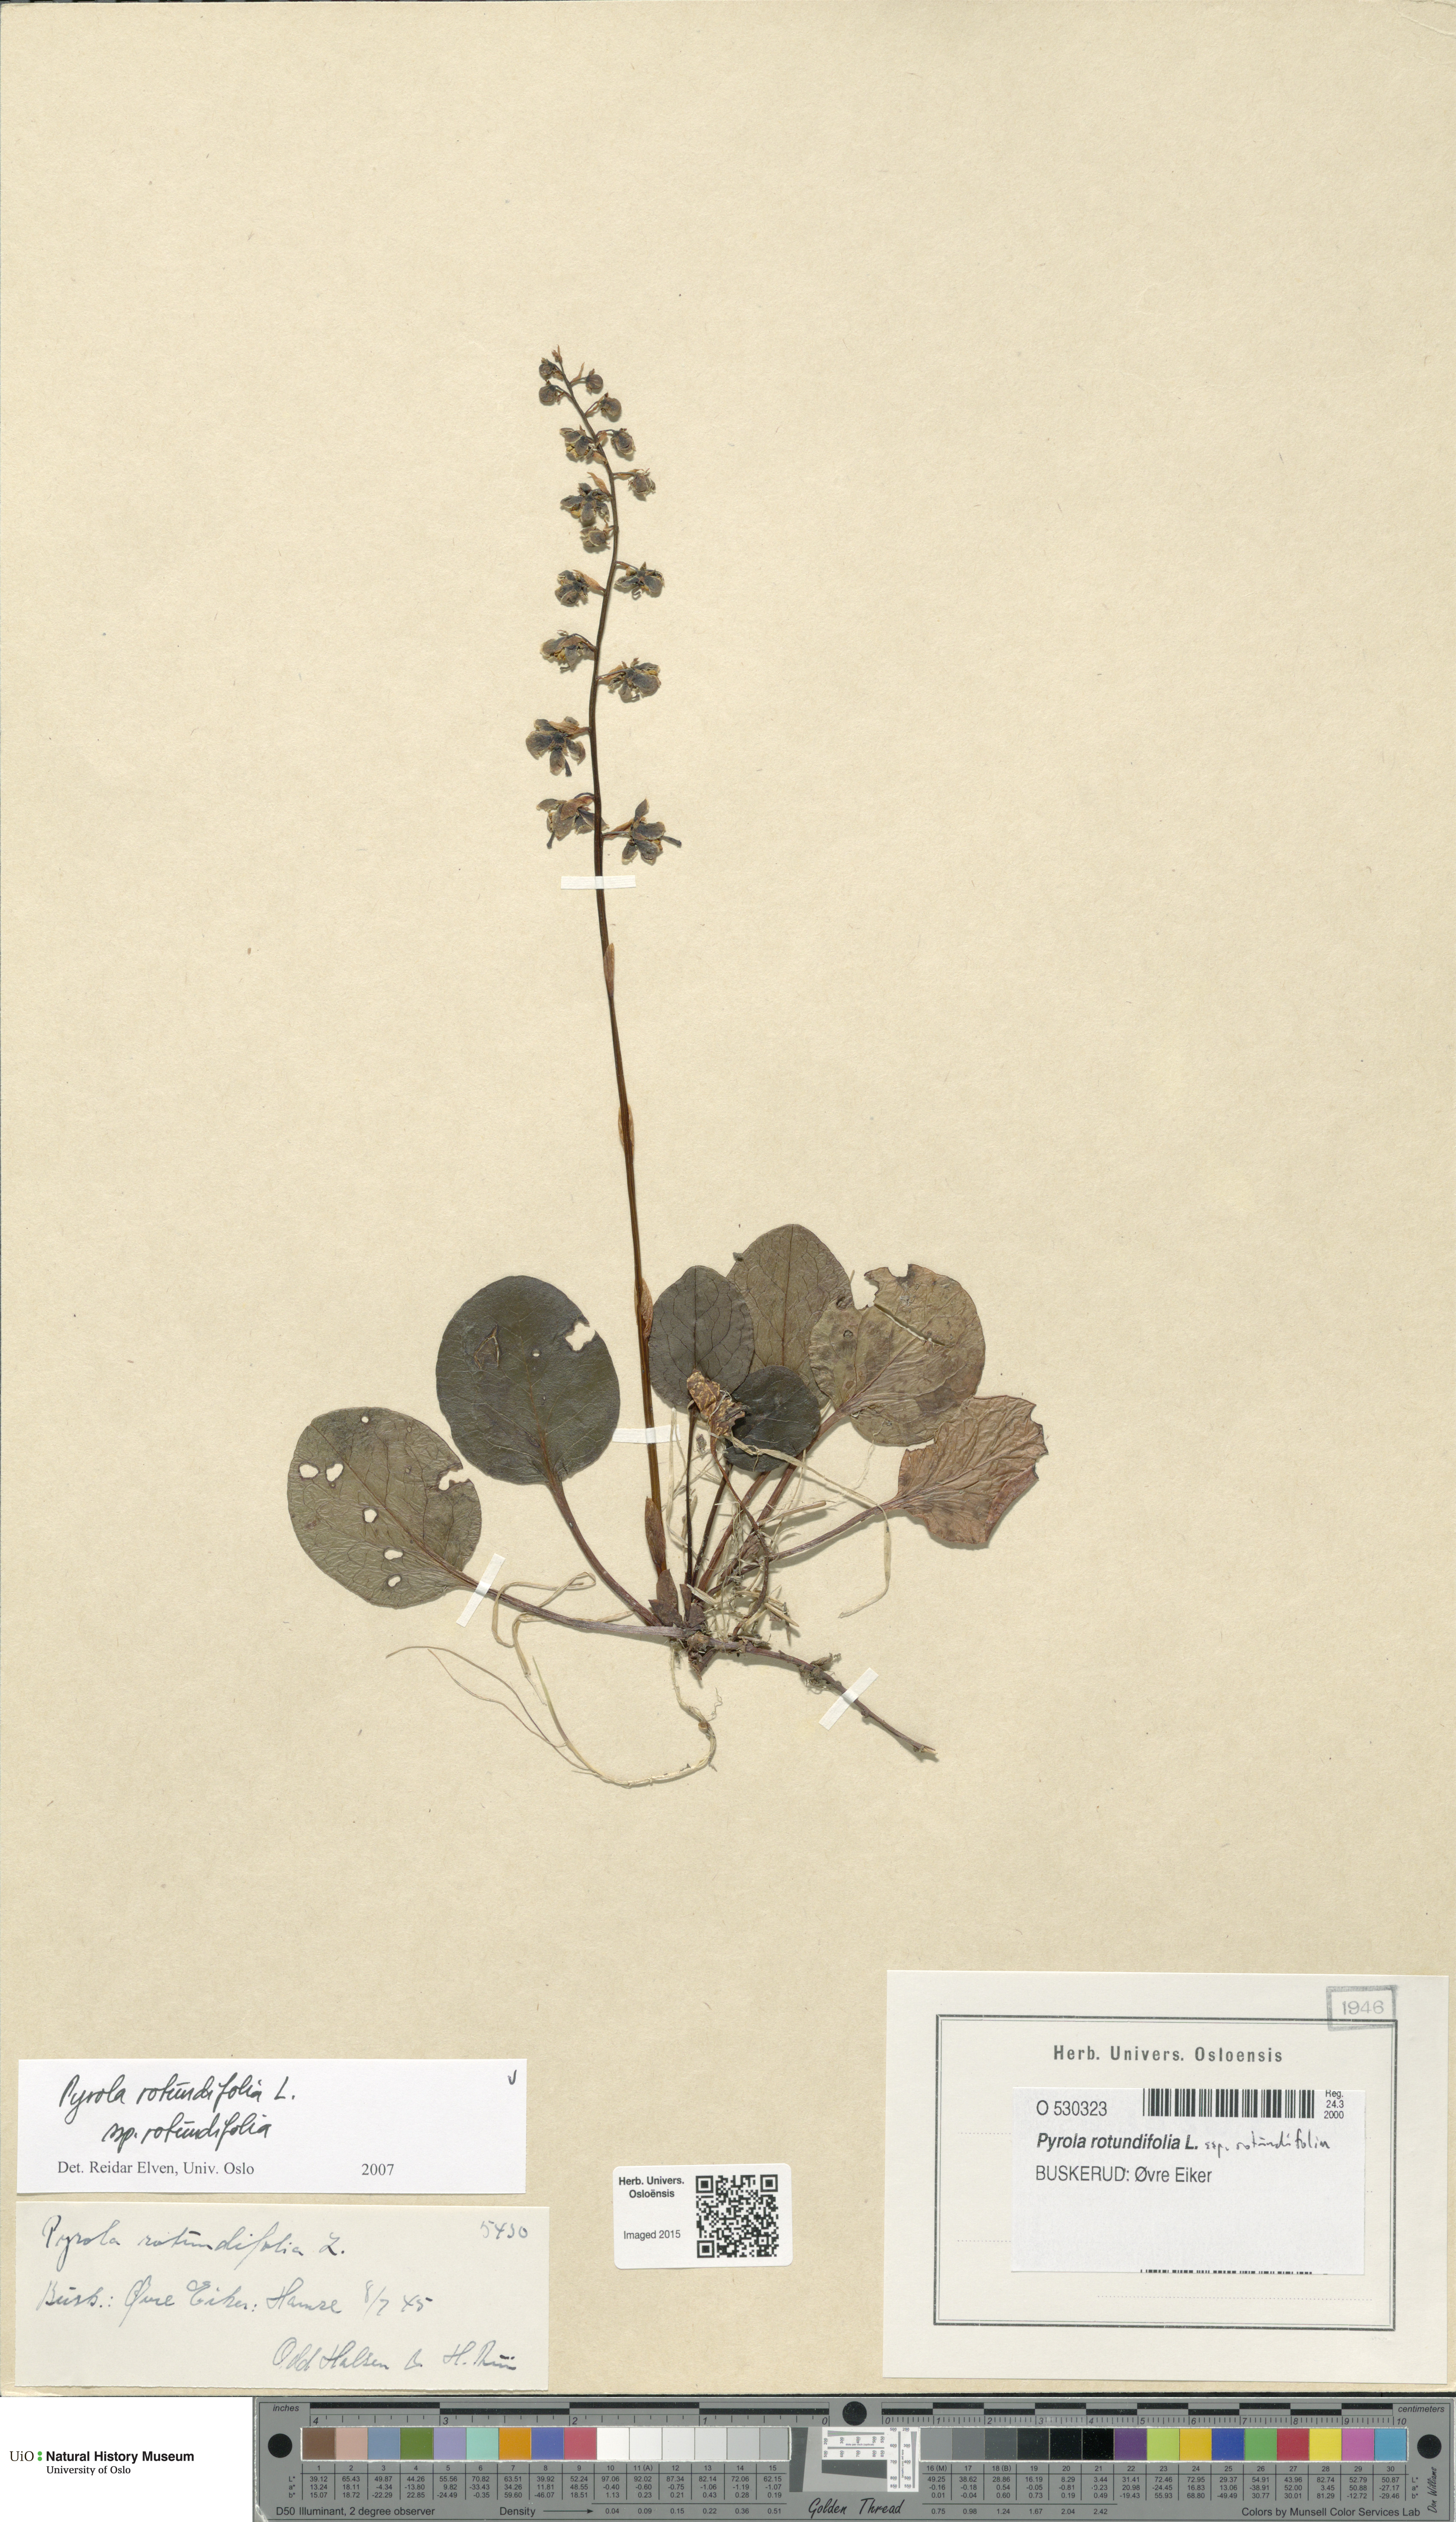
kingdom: Plantae
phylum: Tracheophyta
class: Magnoliopsida
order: Ericales
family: Ericaceae
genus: Pyrola
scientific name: Pyrola rotundifolia
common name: Round-leaved wintergreen
